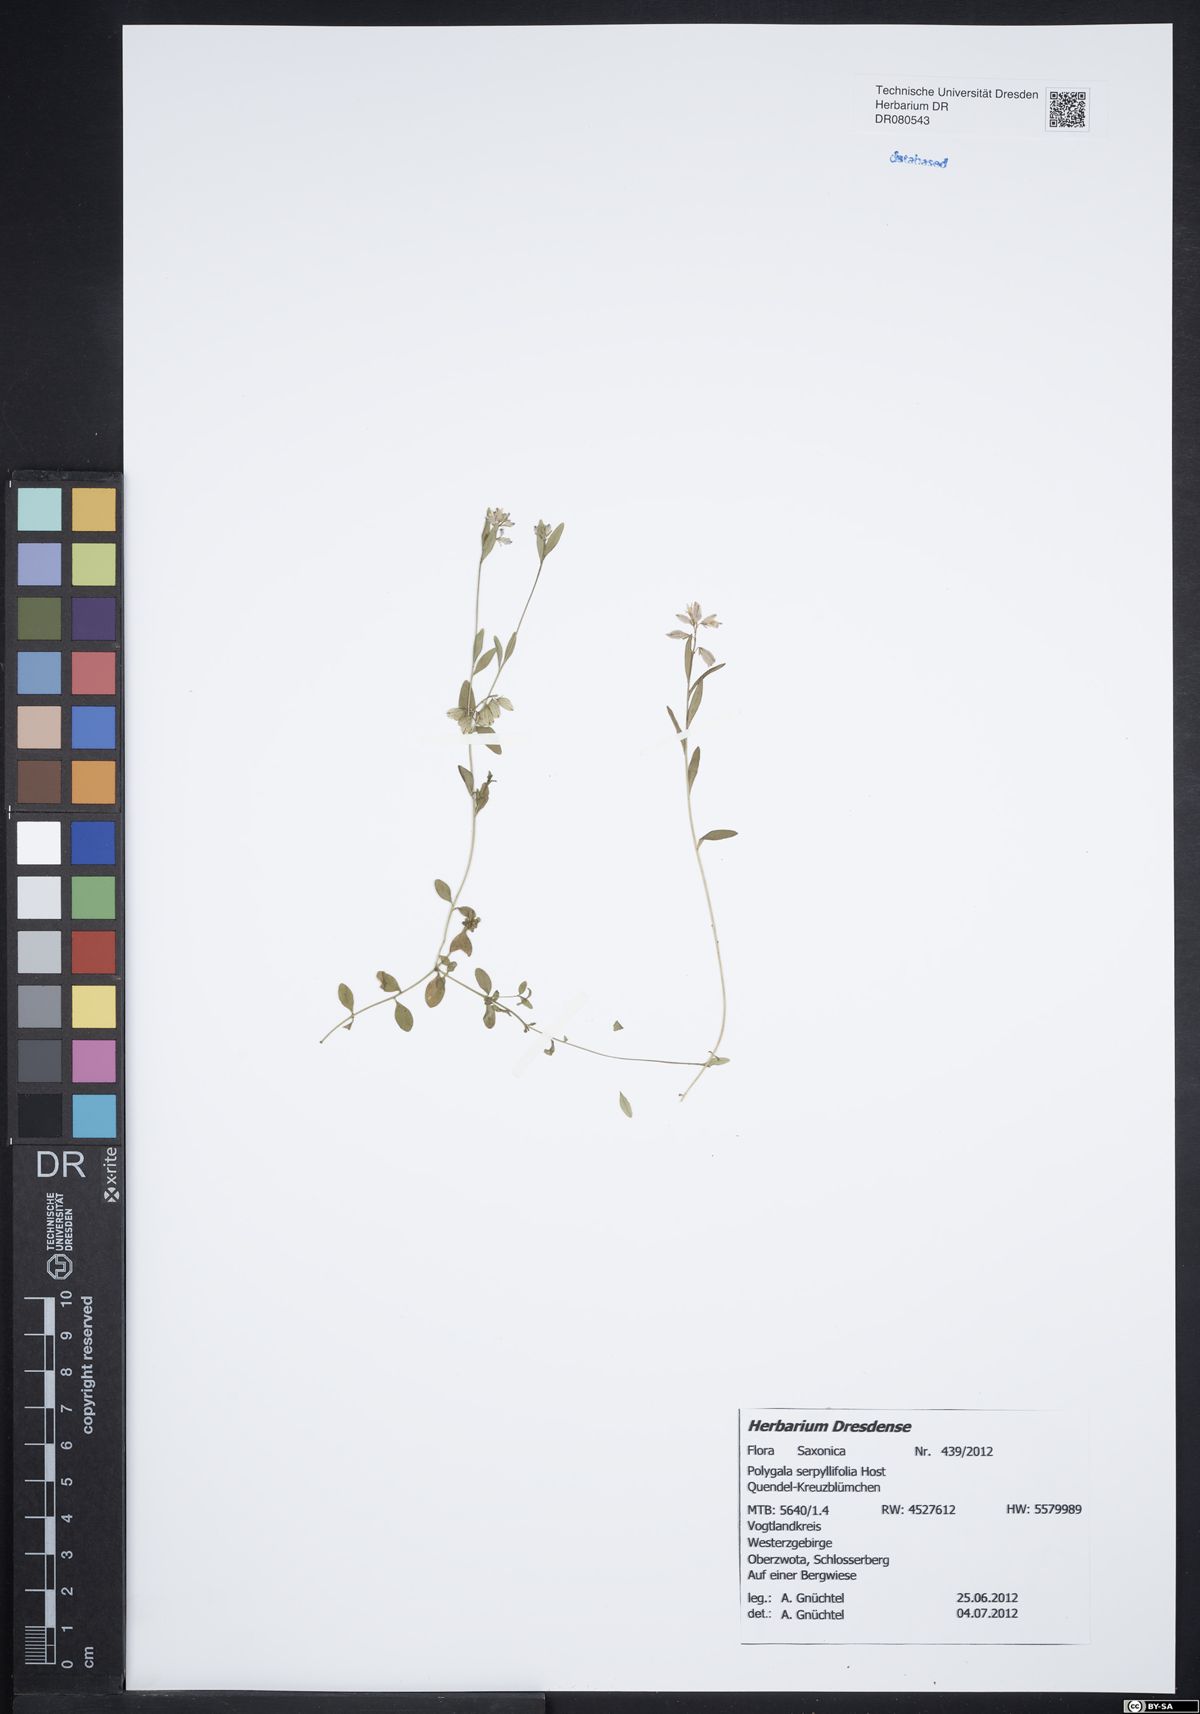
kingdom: Plantae
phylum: Tracheophyta
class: Magnoliopsida
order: Fabales
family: Polygalaceae
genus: Polygala
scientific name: Polygala serpyllifolia
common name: Heath milkwort
